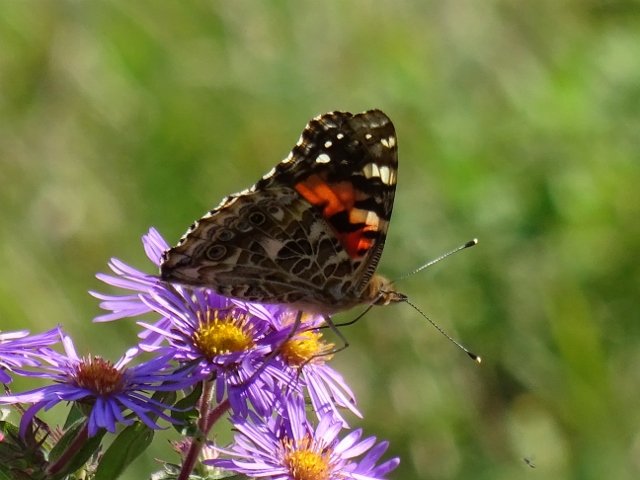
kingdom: Animalia
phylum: Arthropoda
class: Insecta
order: Lepidoptera
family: Nymphalidae
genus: Vanessa
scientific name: Vanessa cardui
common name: Painted Lady
